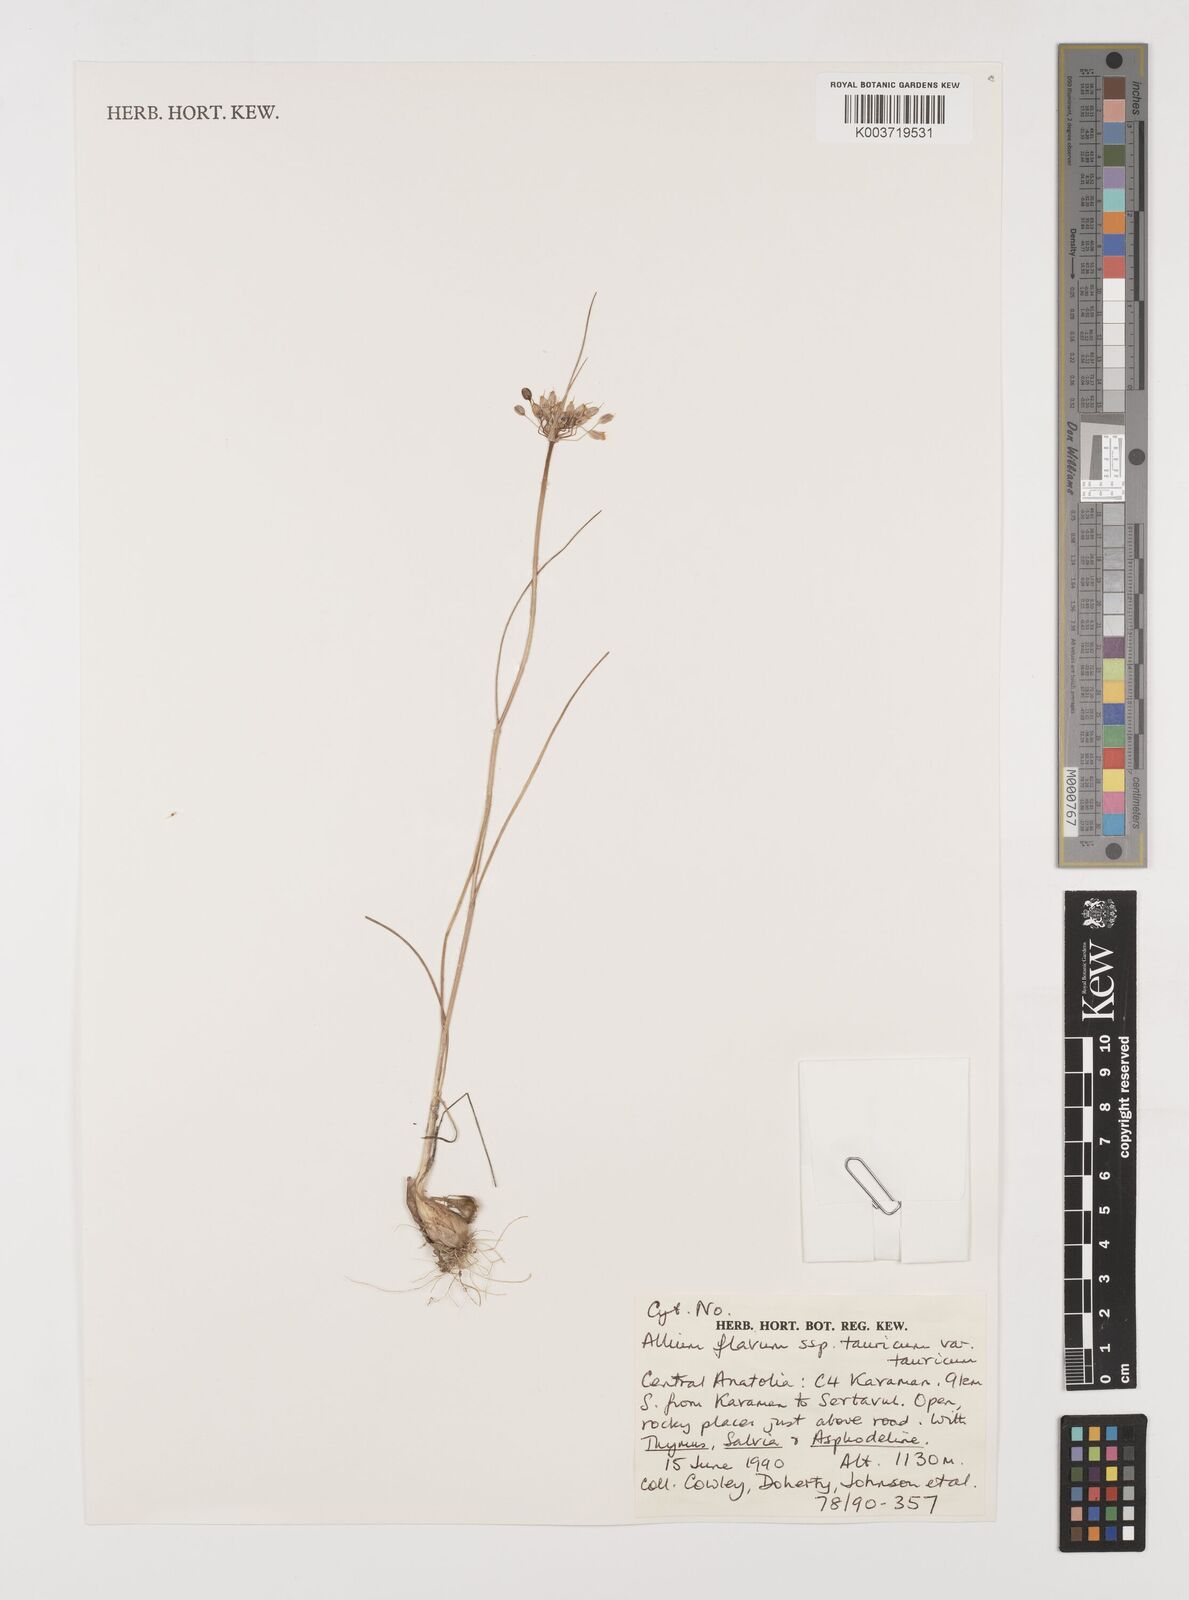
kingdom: Plantae
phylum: Tracheophyta
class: Liliopsida
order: Asparagales
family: Amaryllidaceae
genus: Allium
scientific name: Allium flavum
